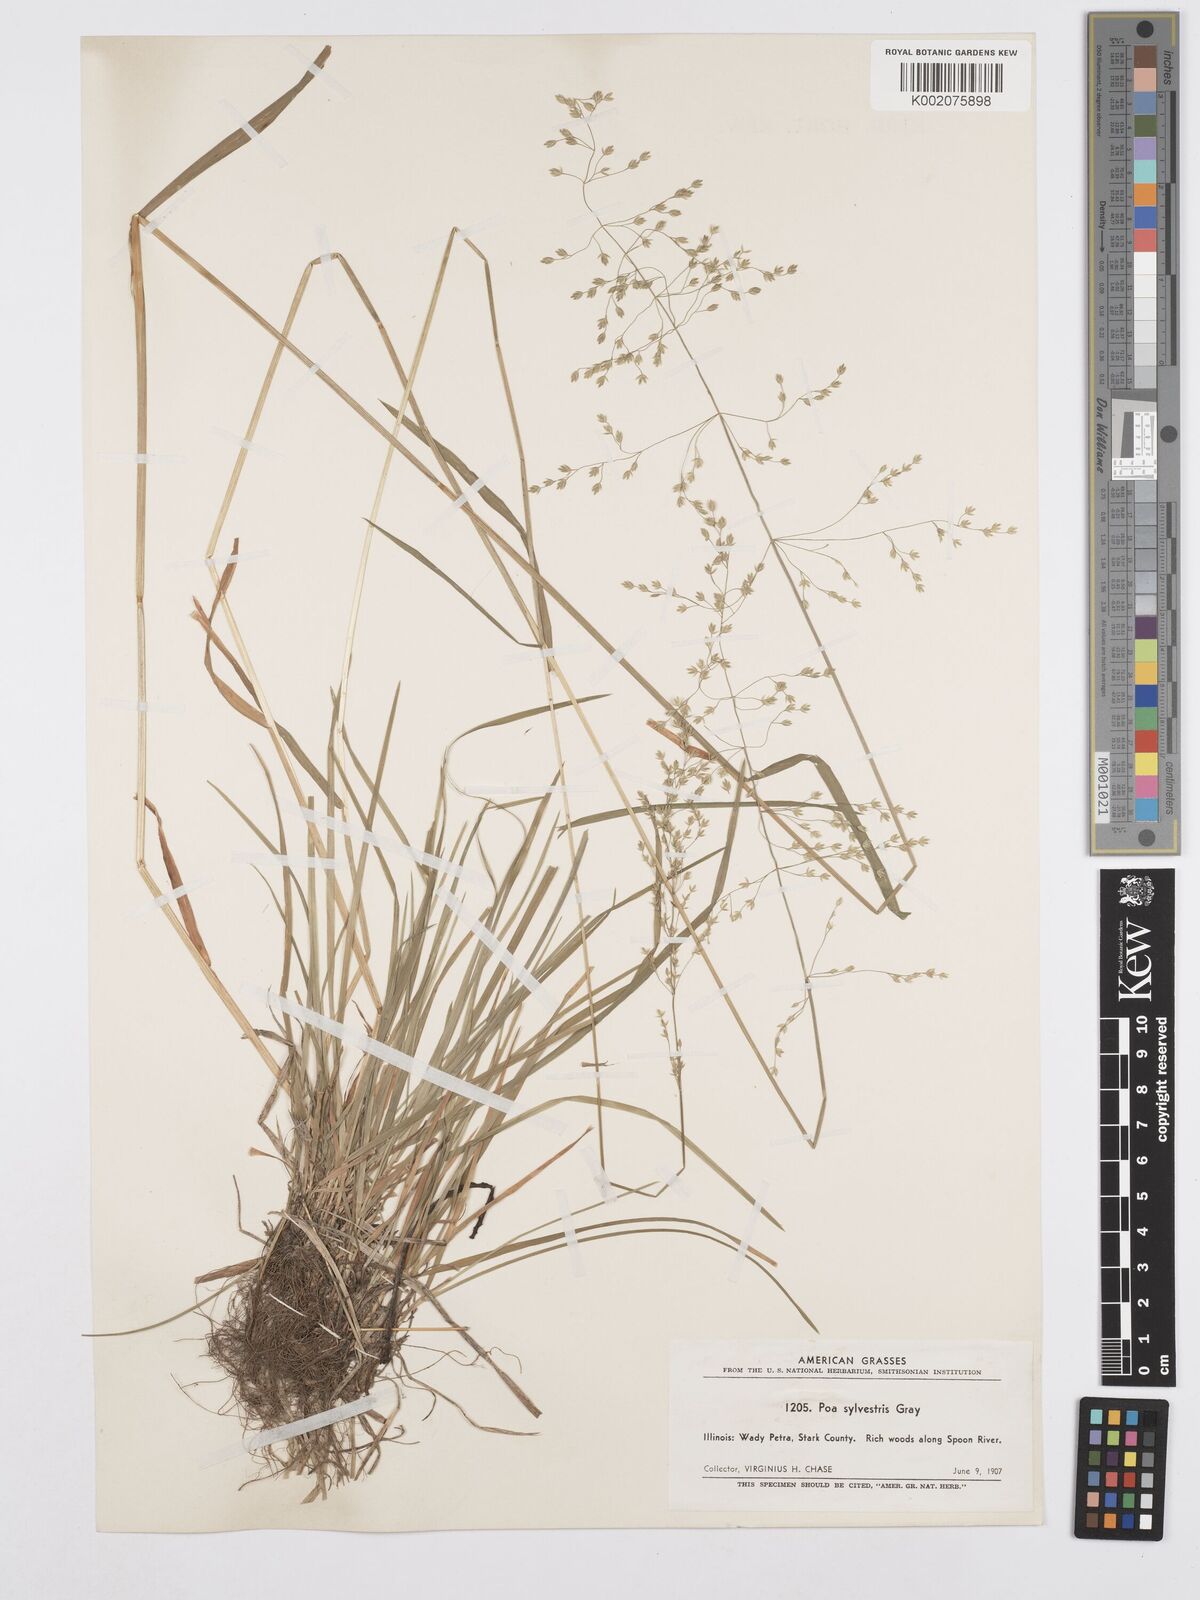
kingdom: Plantae
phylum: Tracheophyta
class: Liliopsida
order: Poales
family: Poaceae
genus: Poa
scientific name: Poa sylvestris
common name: North american woodland bluegrass
